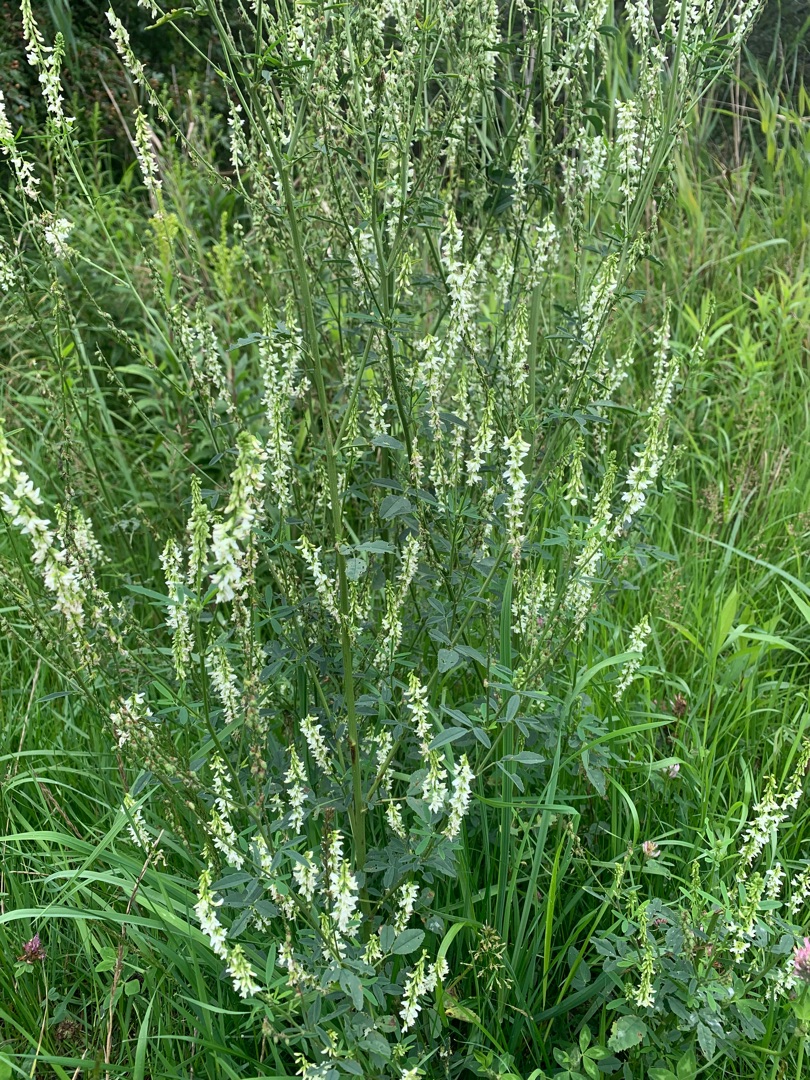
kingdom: Plantae
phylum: Tracheophyta
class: Magnoliopsida
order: Fabales
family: Fabaceae
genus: Melilotus
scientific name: Melilotus albus
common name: Hvid stenkløver
